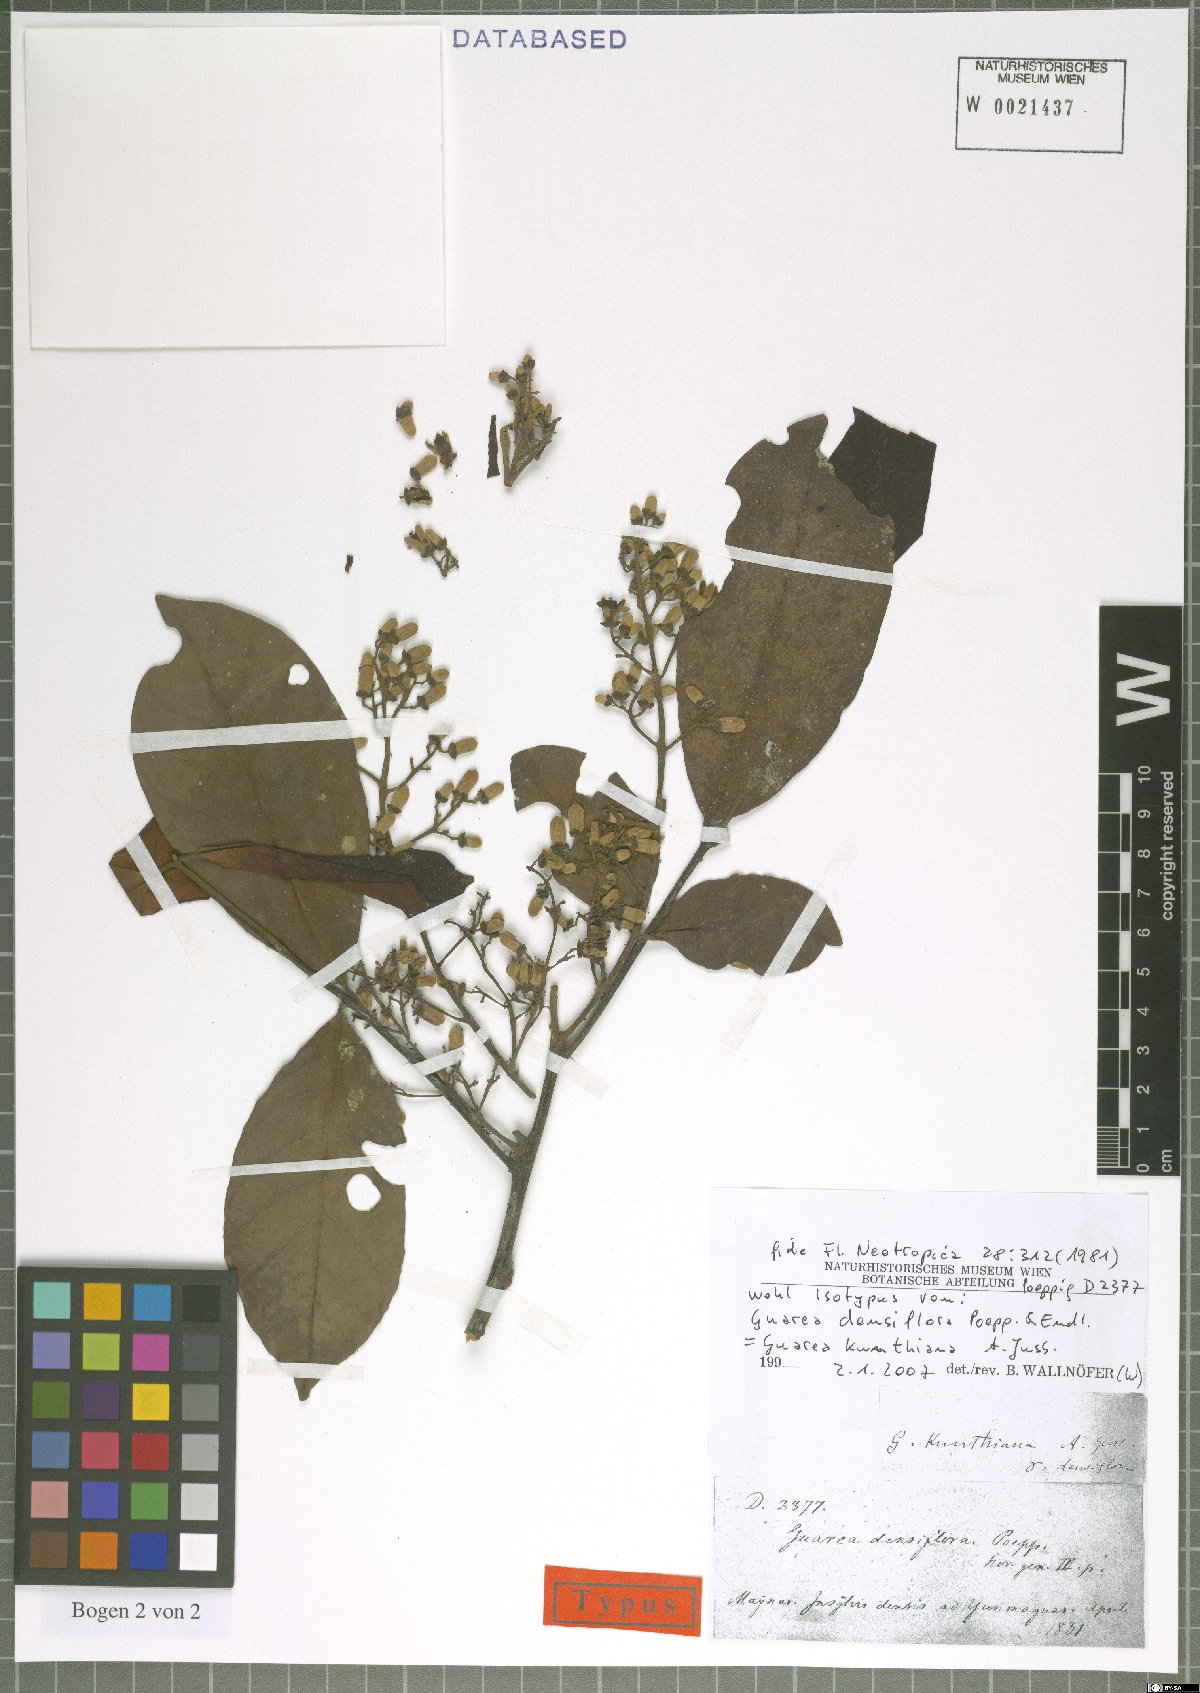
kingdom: Plantae
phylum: Tracheophyta
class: Magnoliopsida
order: Sapindales
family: Meliaceae
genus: Guarea
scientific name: Guarea kunthiana
